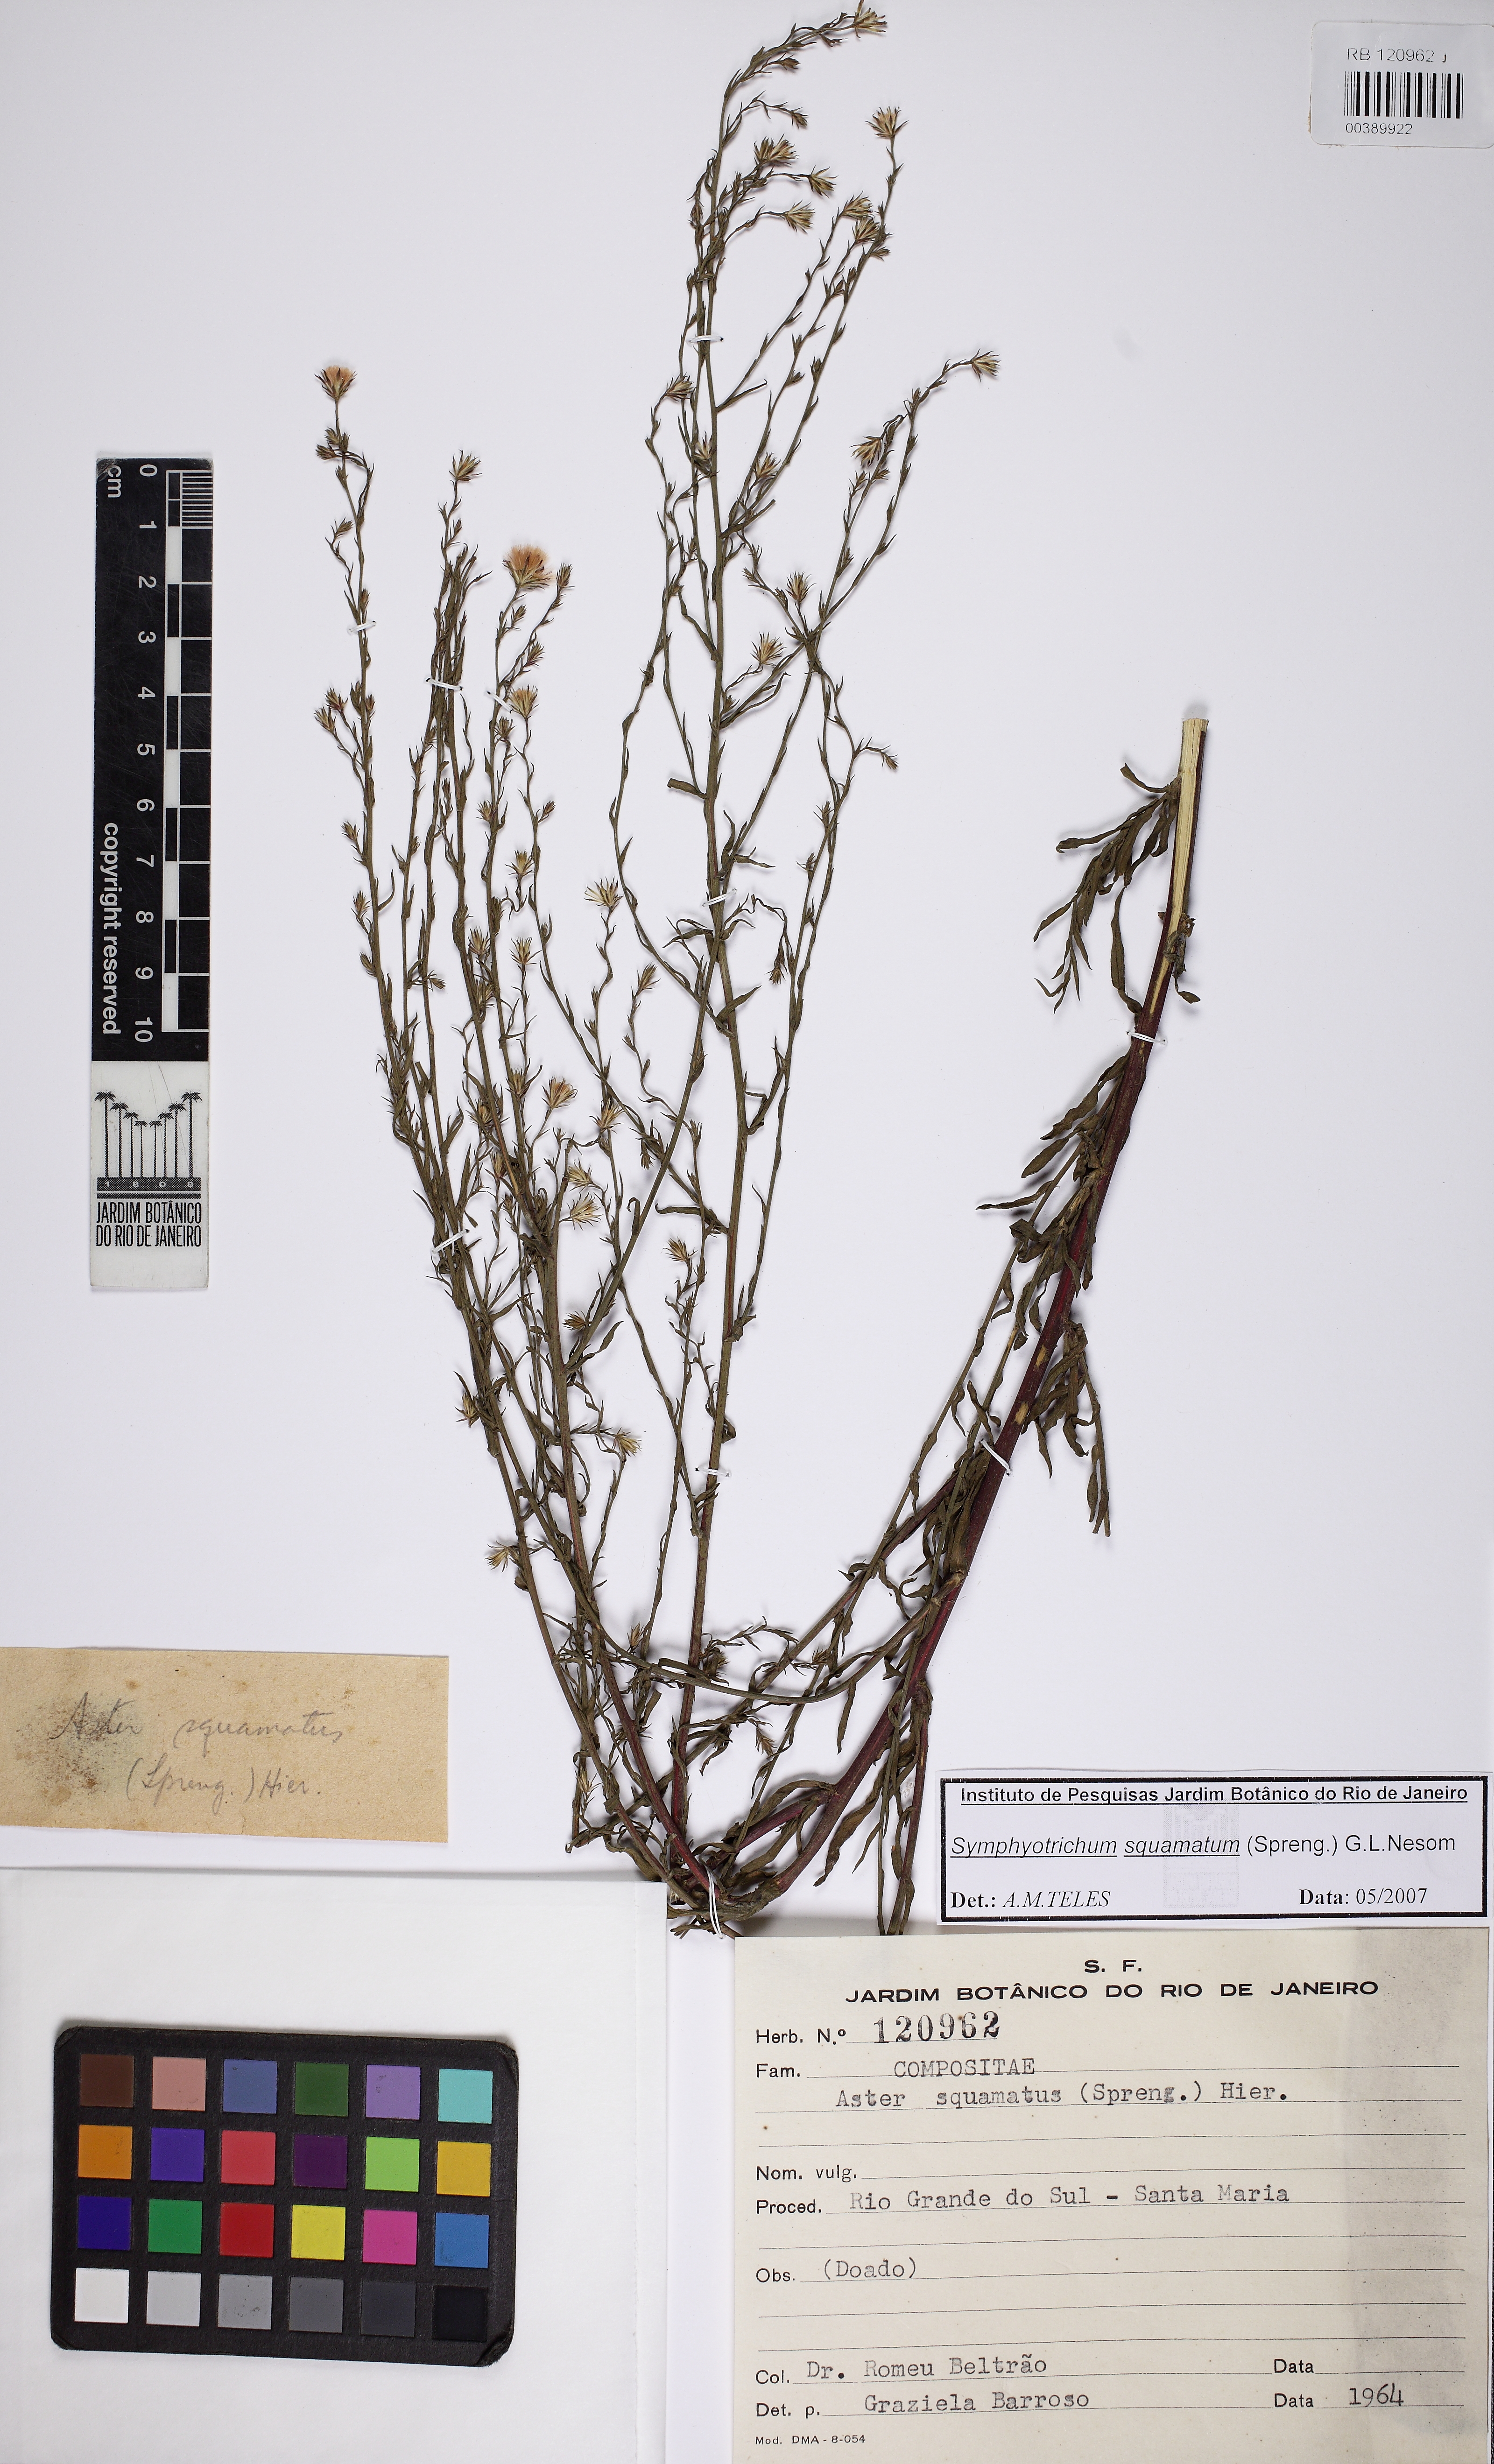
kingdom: Plantae
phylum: Tracheophyta
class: Magnoliopsida
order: Asterales
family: Asteraceae
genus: Symphyotrichum
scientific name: Symphyotrichum squamatum
